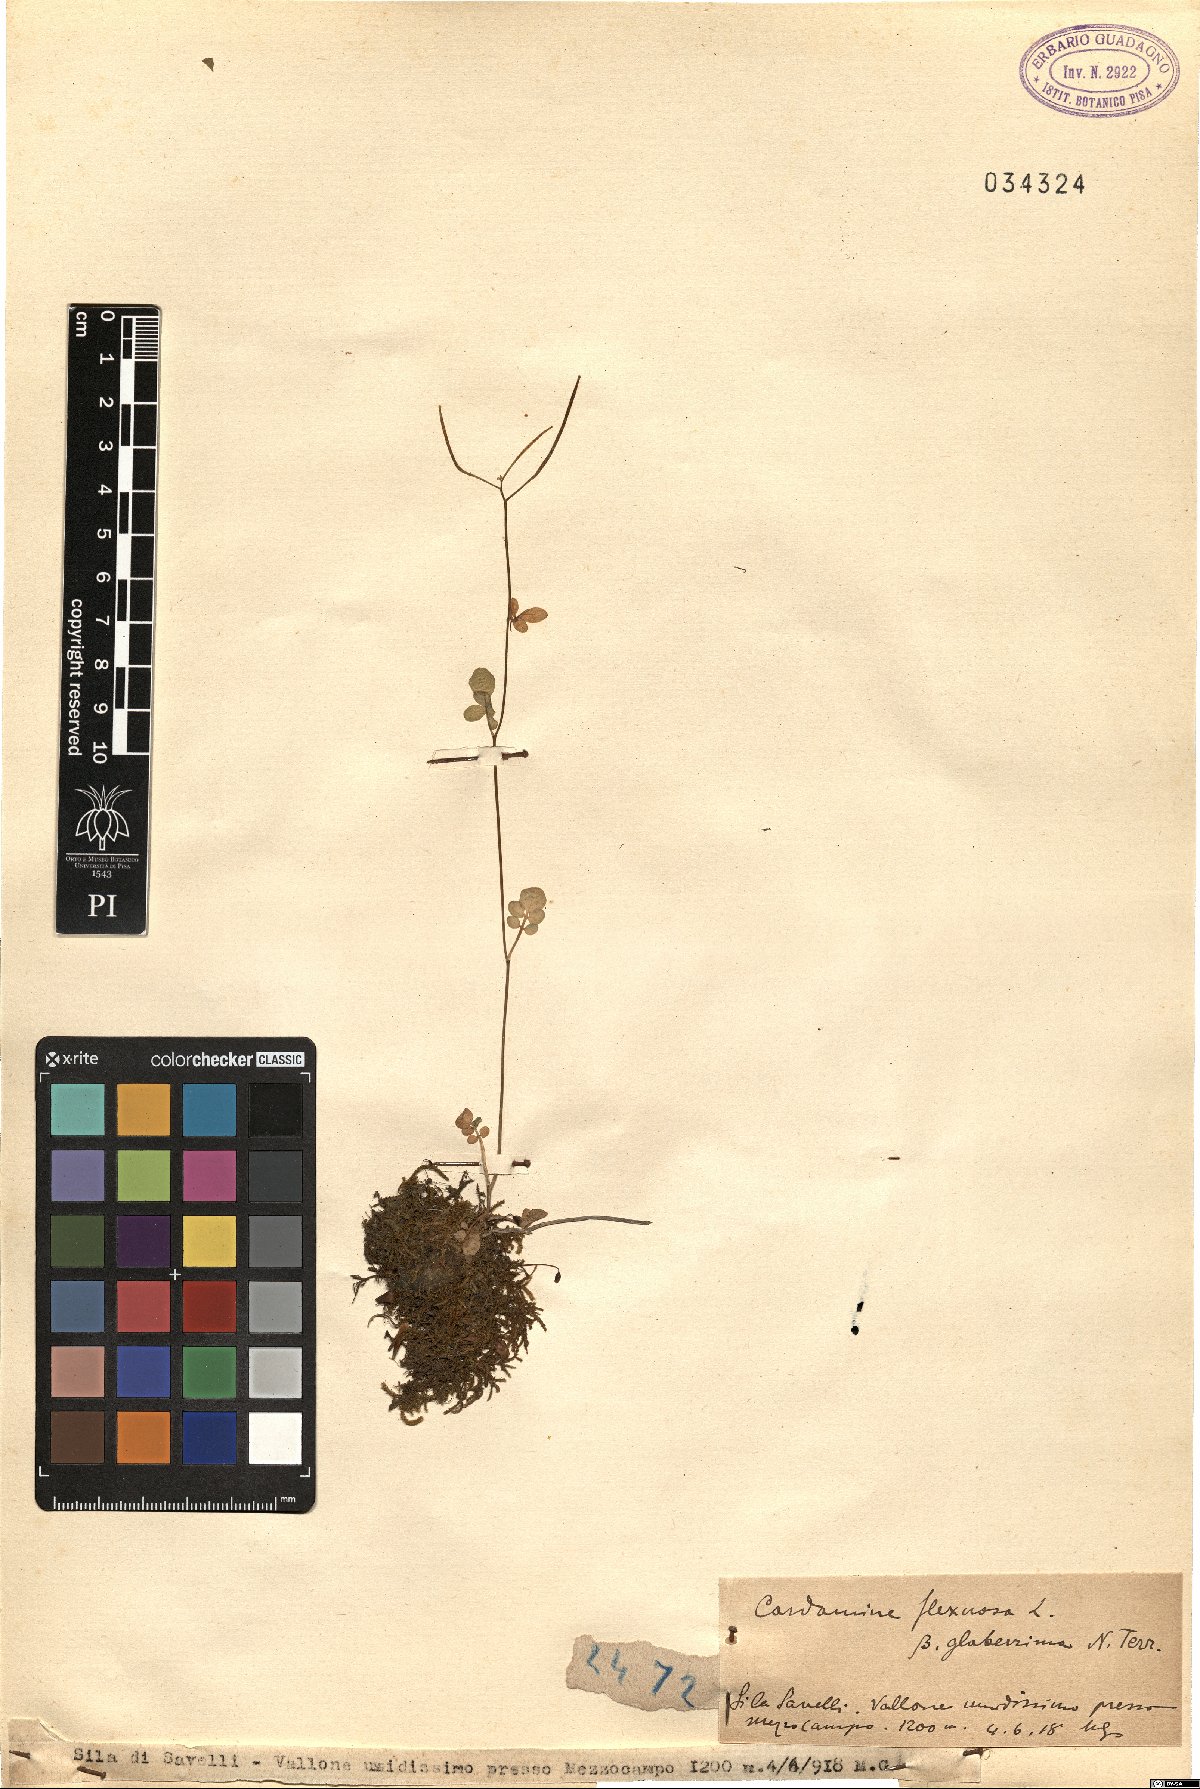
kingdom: Plantae
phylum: Tracheophyta
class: Magnoliopsida
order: Brassicales
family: Brassicaceae
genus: Cardamine
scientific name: Cardamine flexuosa
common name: Woodland bittercress
